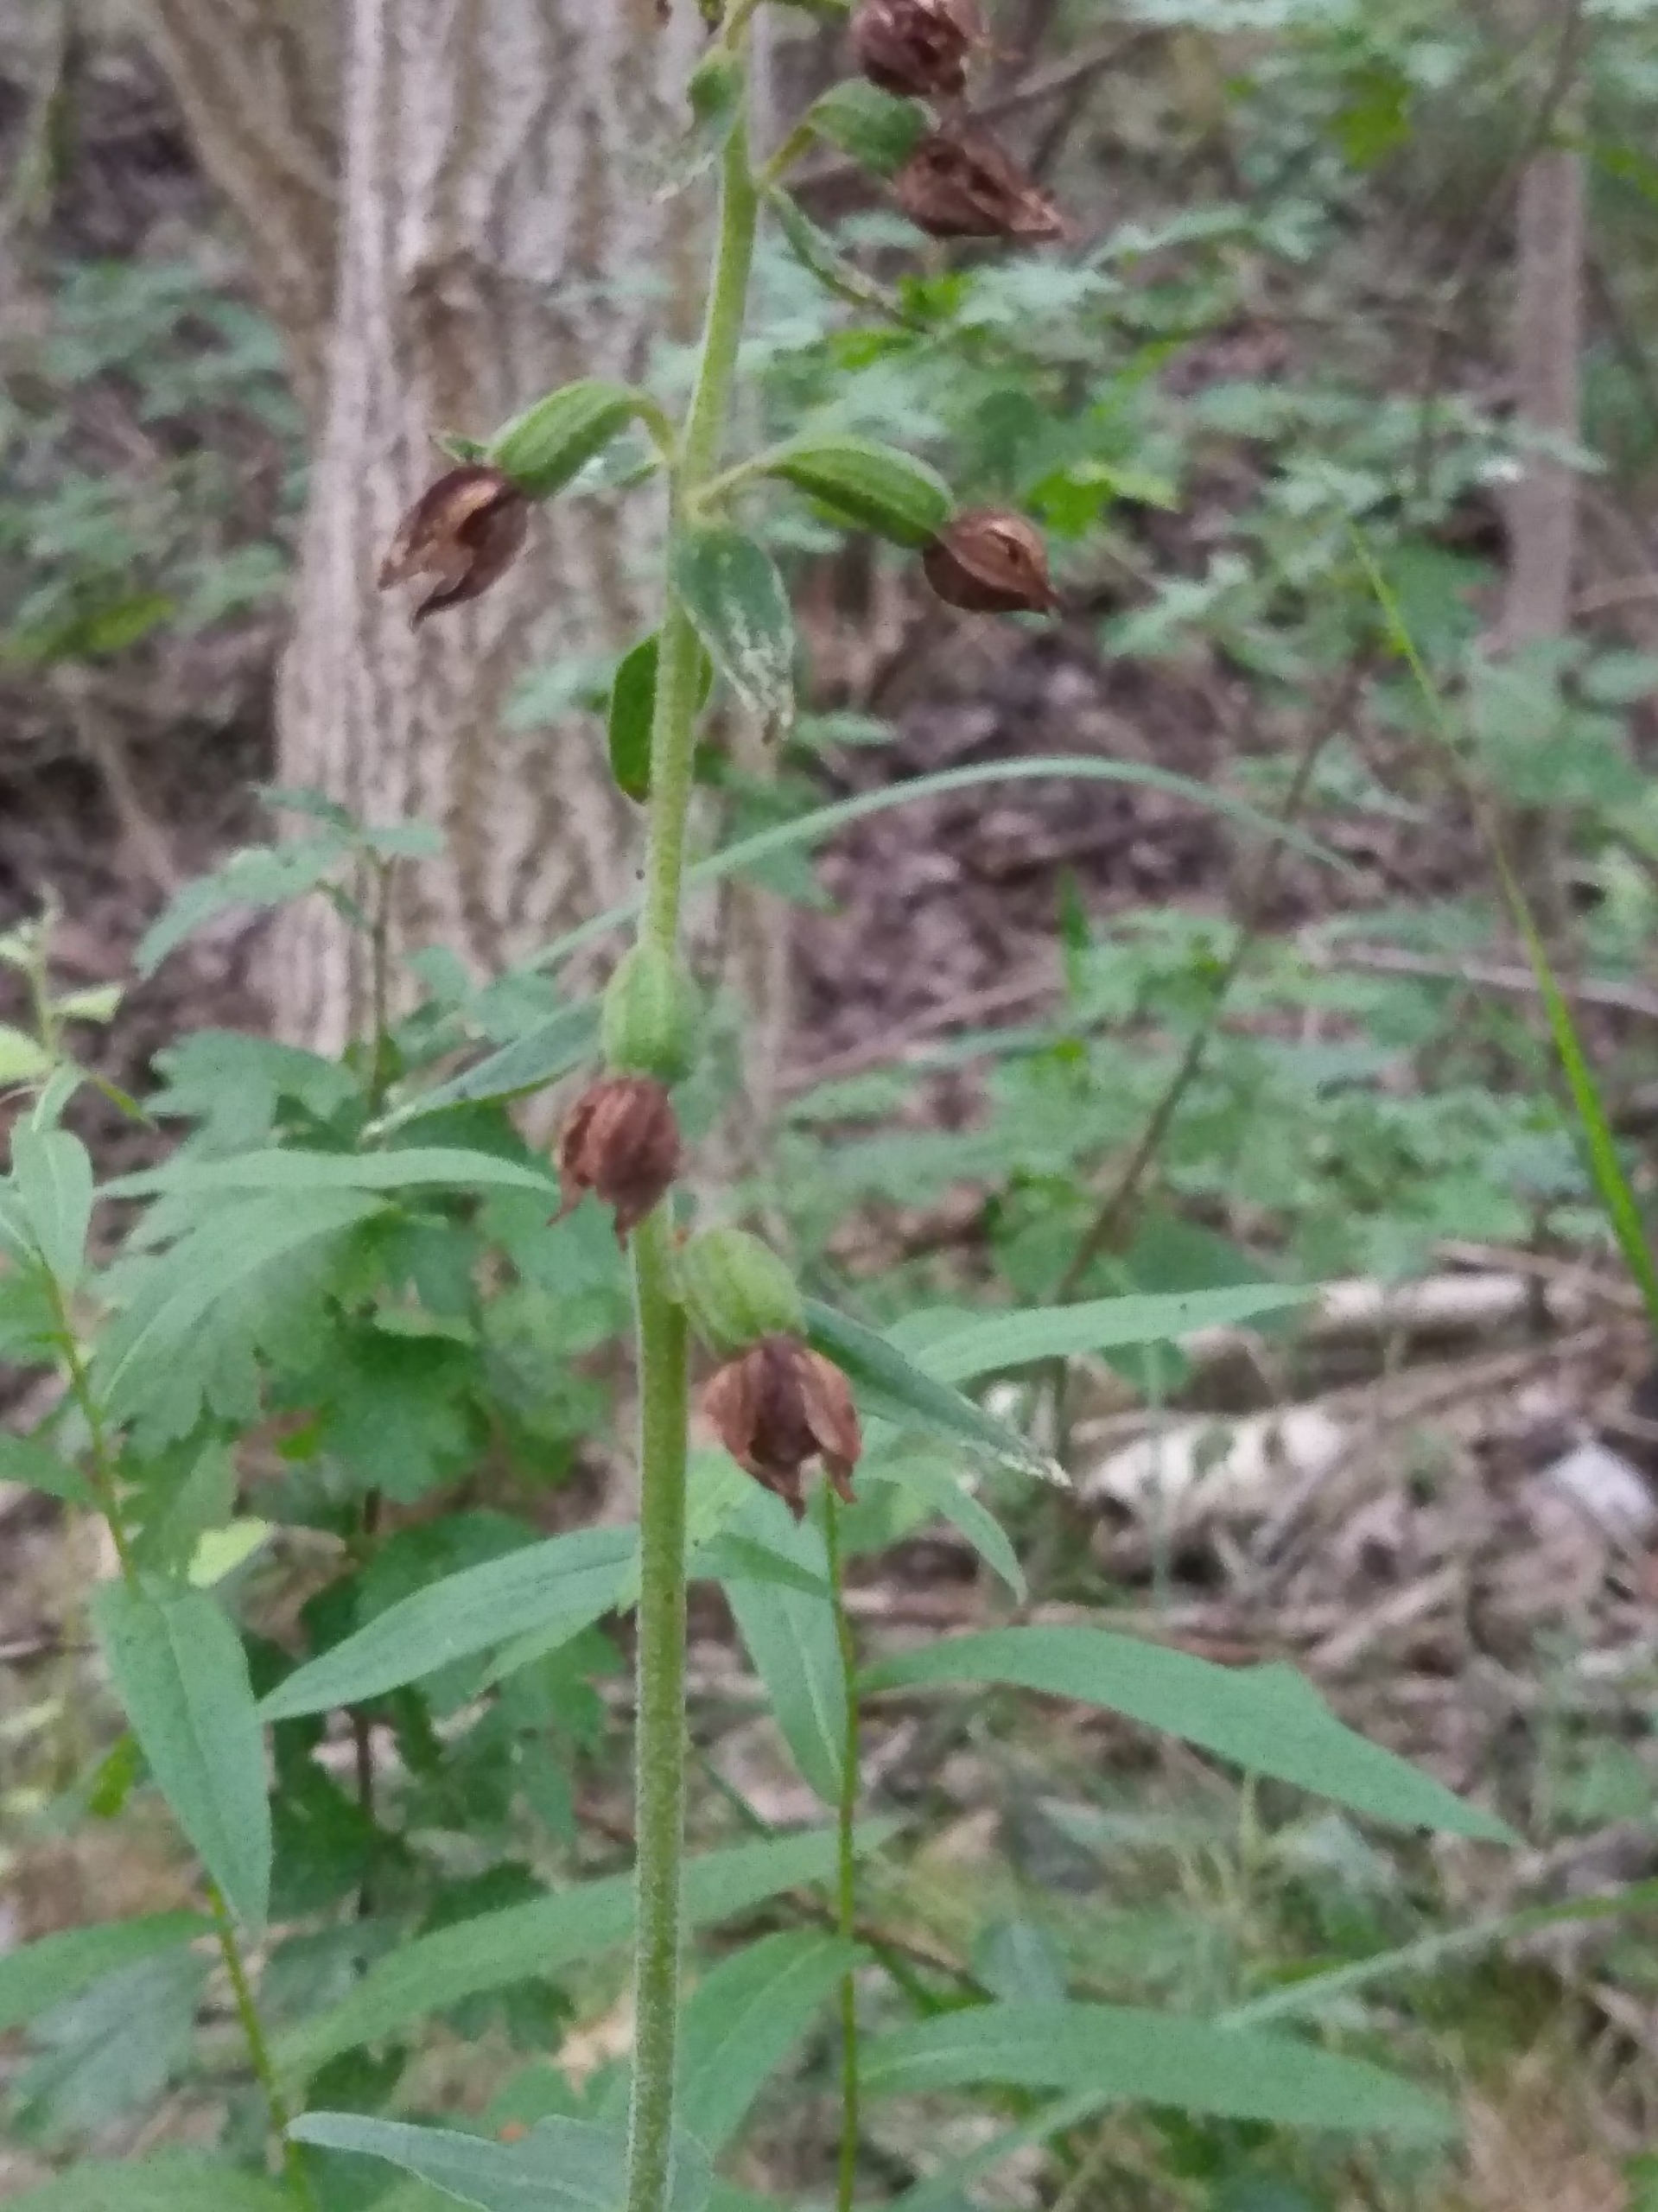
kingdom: Plantae
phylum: Tracheophyta
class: Liliopsida
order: Asparagales
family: Orchidaceae
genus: Epipactis
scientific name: Epipactis helleborine
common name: Skov-hullæbe
